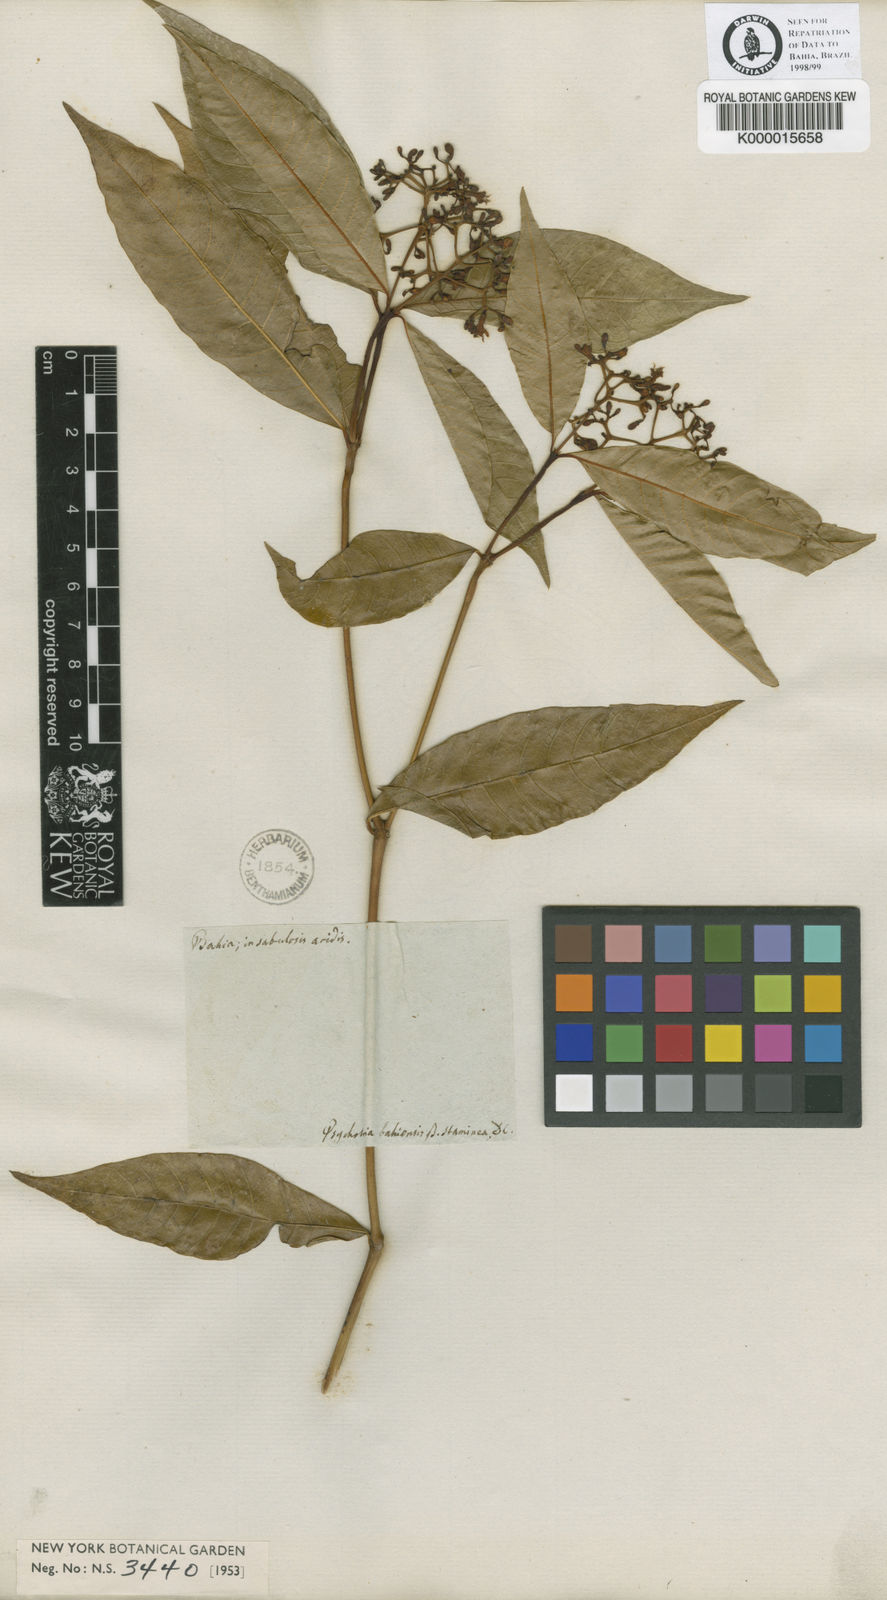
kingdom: Plantae
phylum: Tracheophyta
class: Magnoliopsida
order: Gentianales
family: Rubiaceae
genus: Palicourea
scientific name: Palicourea cuspidata
